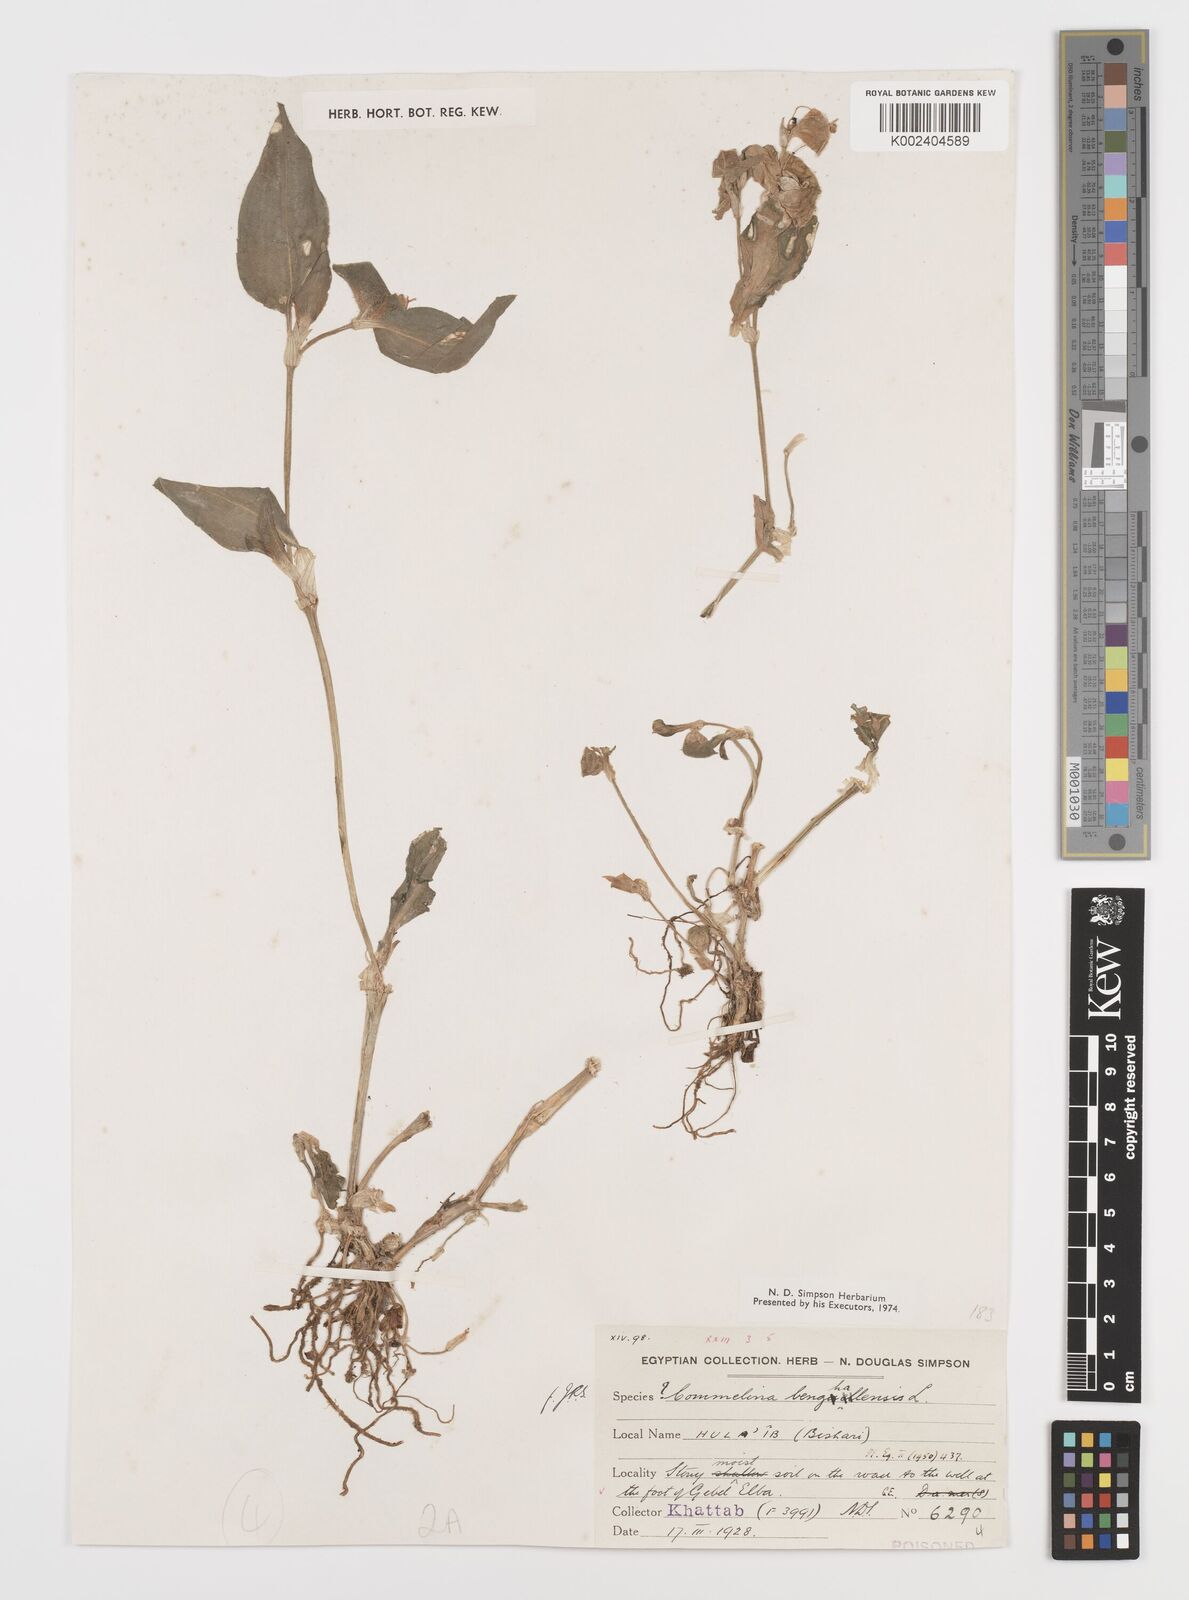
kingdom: Plantae
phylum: Tracheophyta
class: Liliopsida
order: Commelinales
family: Commelinaceae
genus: Commelina
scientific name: Commelina benghalensis
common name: Jio
